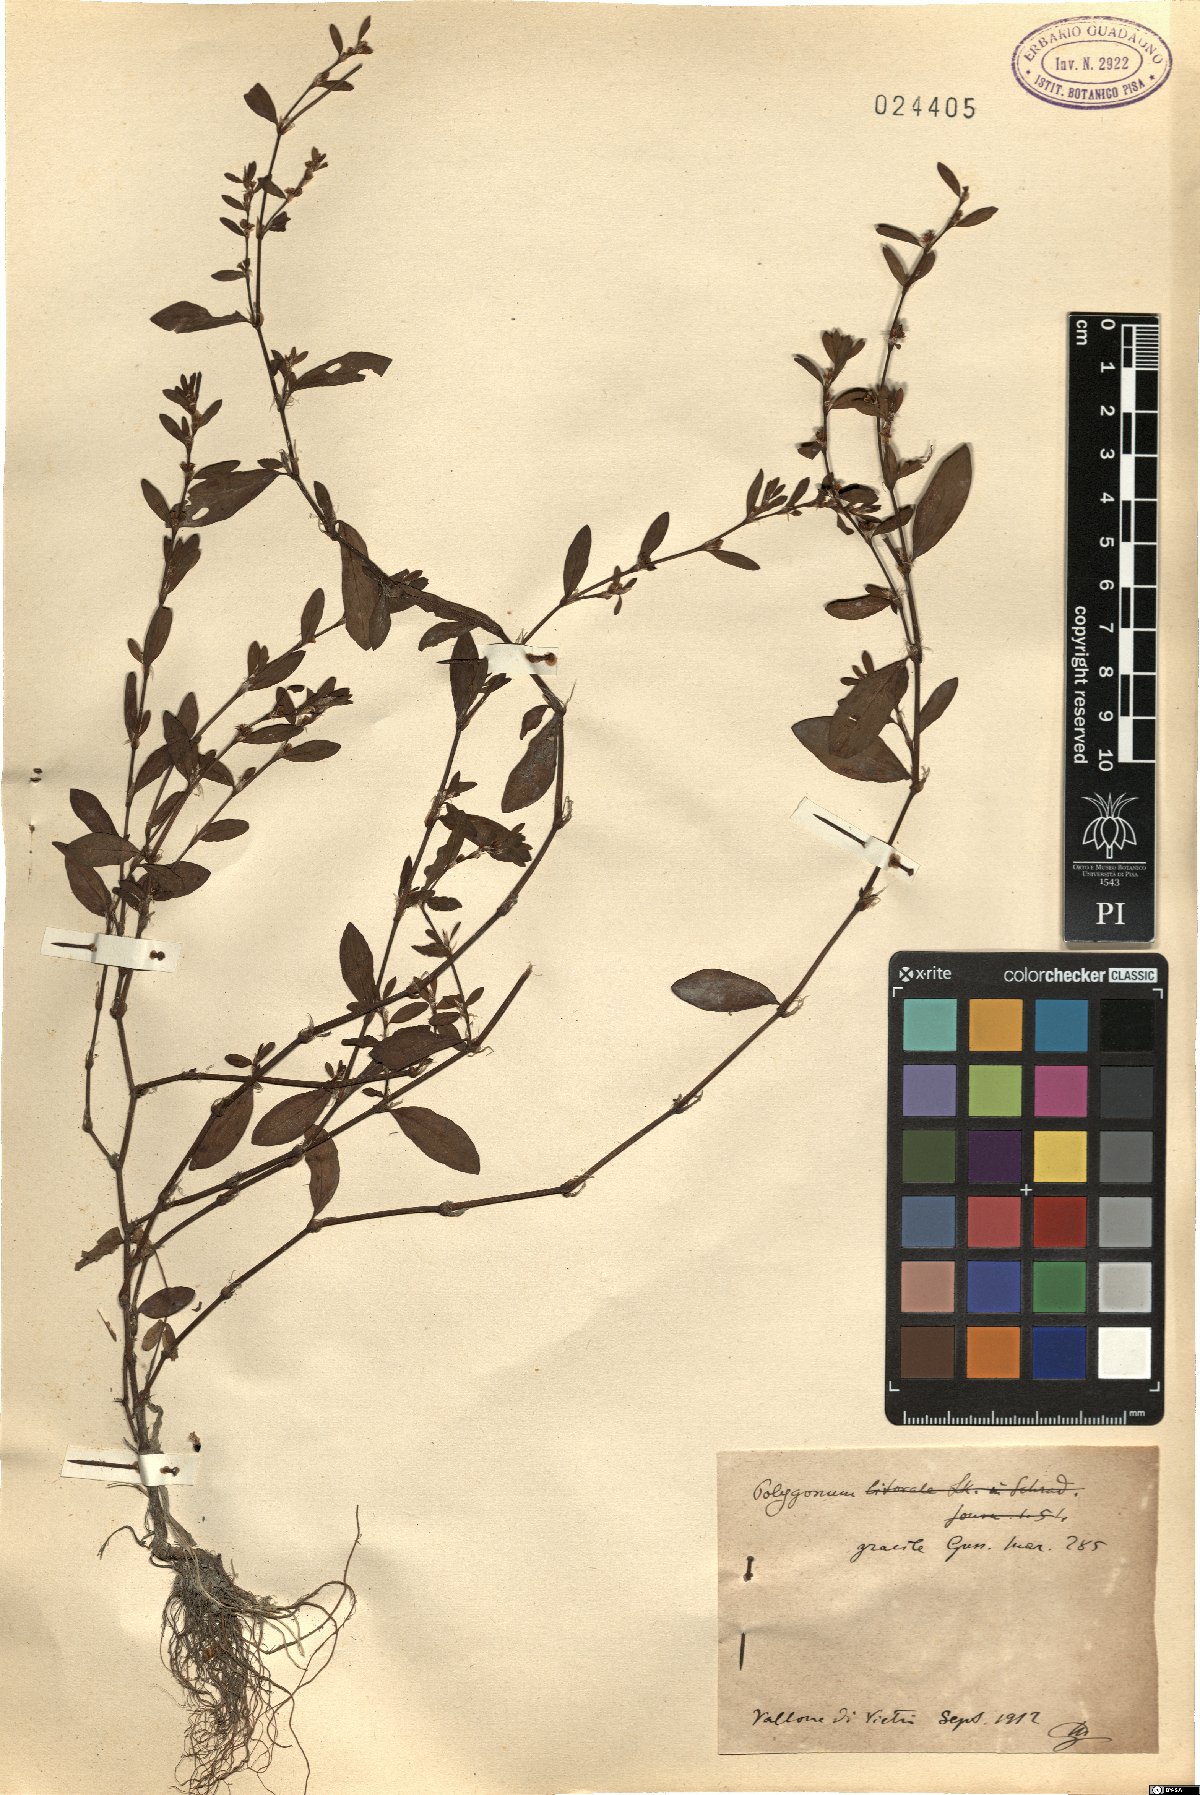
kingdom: Plantae
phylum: Tracheophyta
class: Magnoliopsida
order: Caryophyllales
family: Polygonaceae
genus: Polygonum
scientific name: Polygonum
